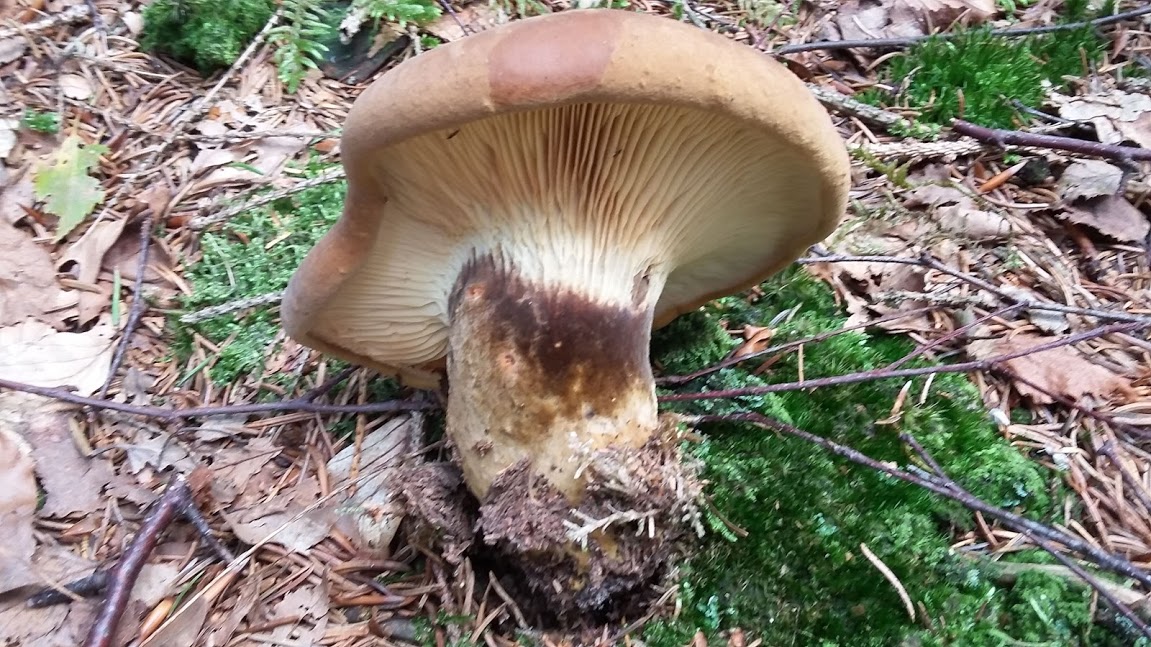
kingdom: Fungi
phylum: Basidiomycota
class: Agaricomycetes
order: Boletales
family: Tapinellaceae
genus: Tapinella
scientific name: Tapinella atrotomentosa
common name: sortfiltet viftesvamp
